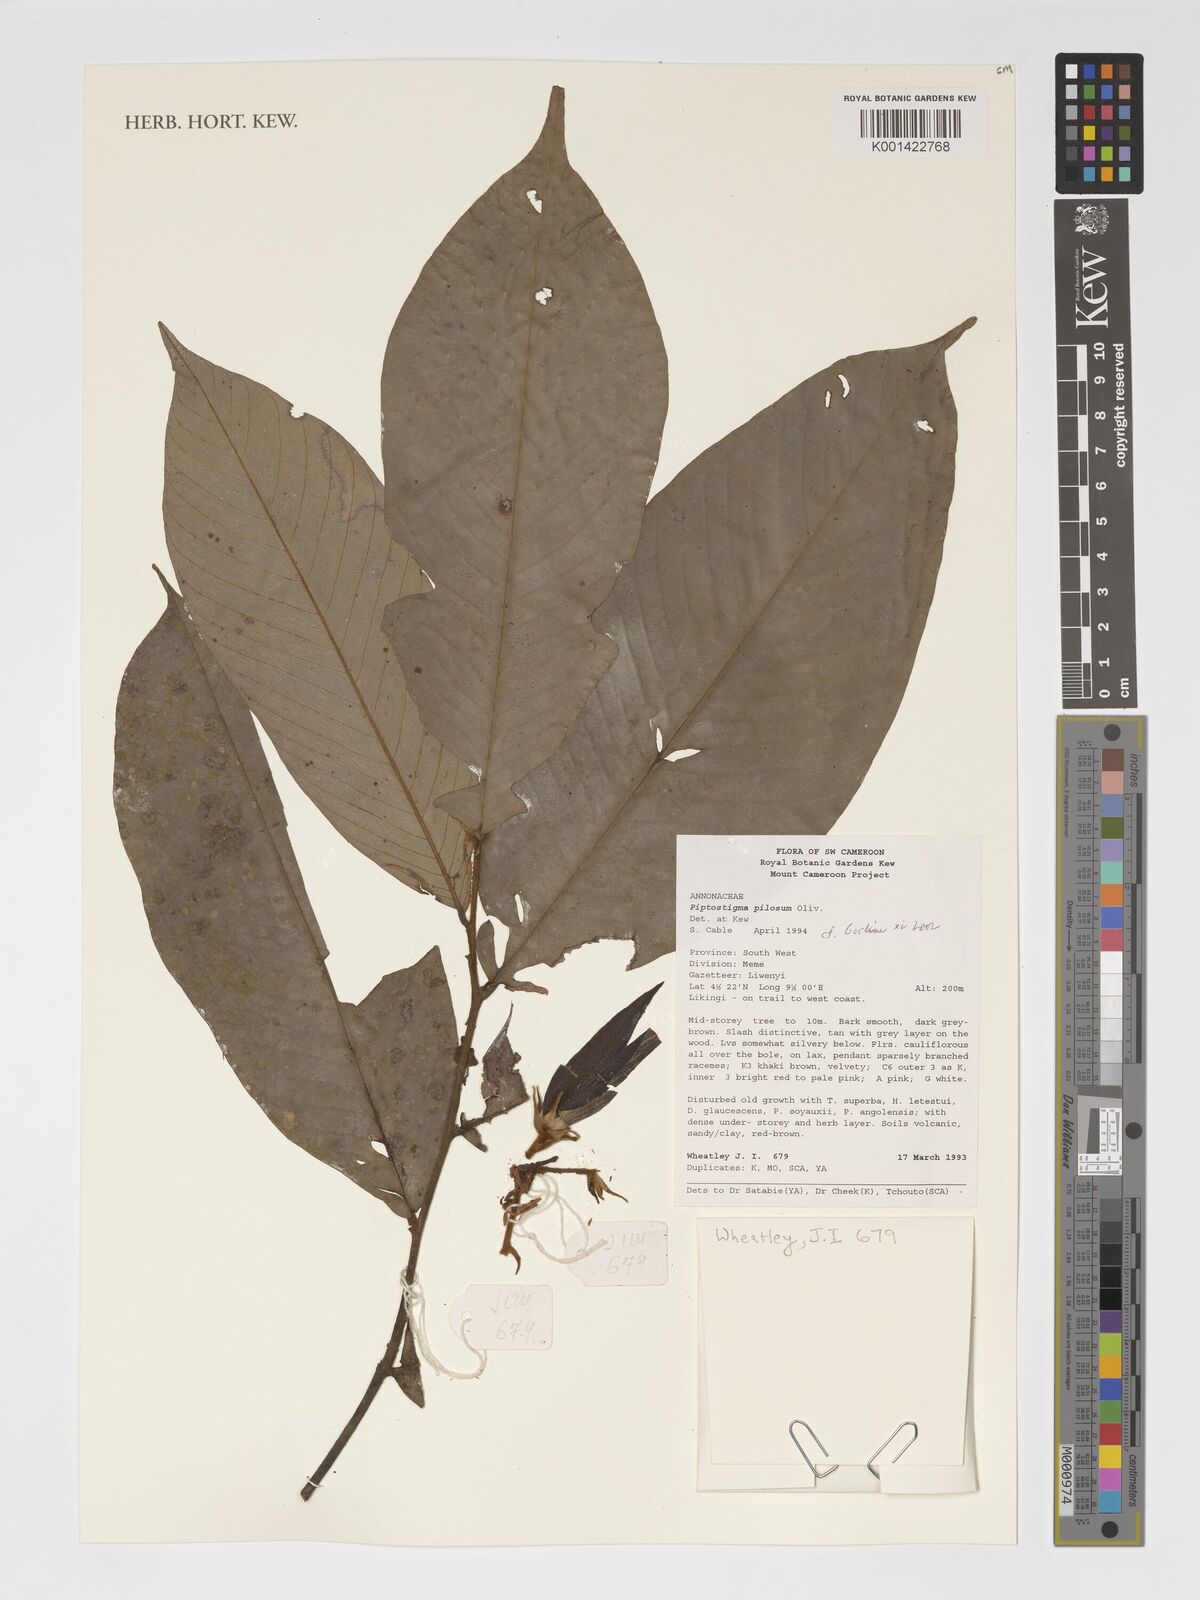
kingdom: Plantae
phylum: Tracheophyta
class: Magnoliopsida
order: Magnoliales
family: Annonaceae
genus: Piptostigma
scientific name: Piptostigma pilosum
